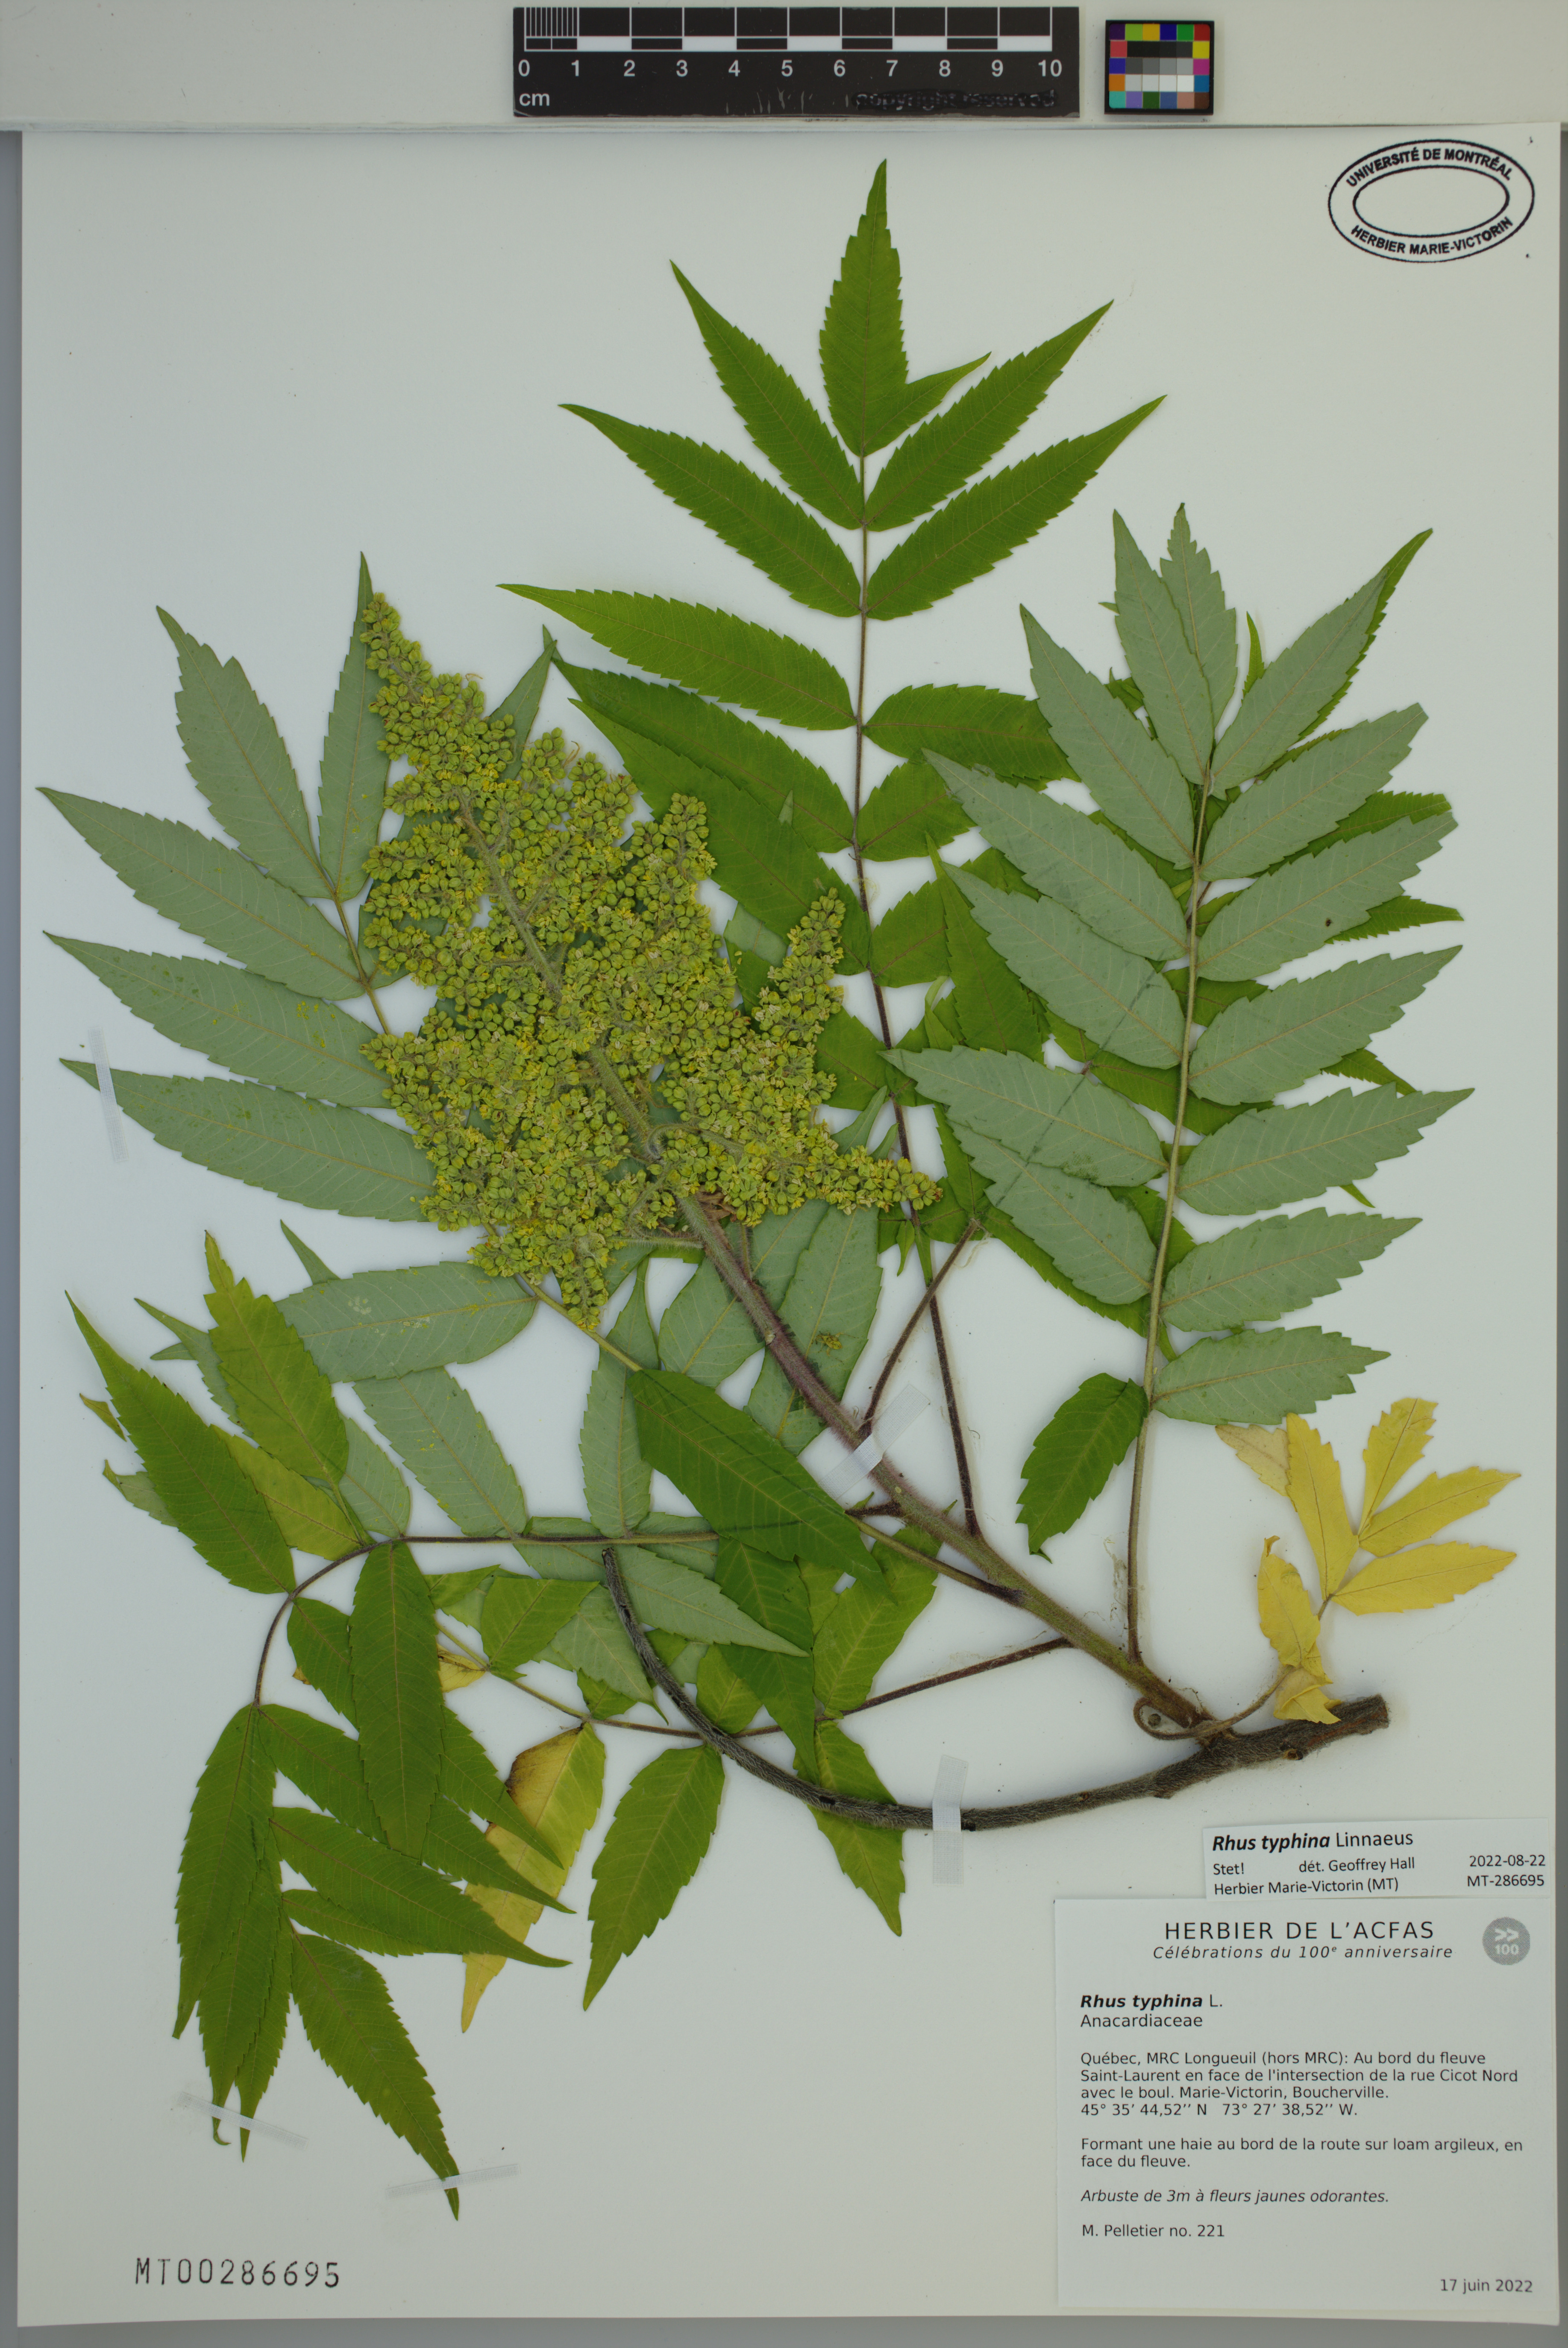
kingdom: Plantae
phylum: Tracheophyta
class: Magnoliopsida
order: Sapindales
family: Anacardiaceae
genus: Rhus
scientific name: Rhus typhina
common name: Staghorn sumac
